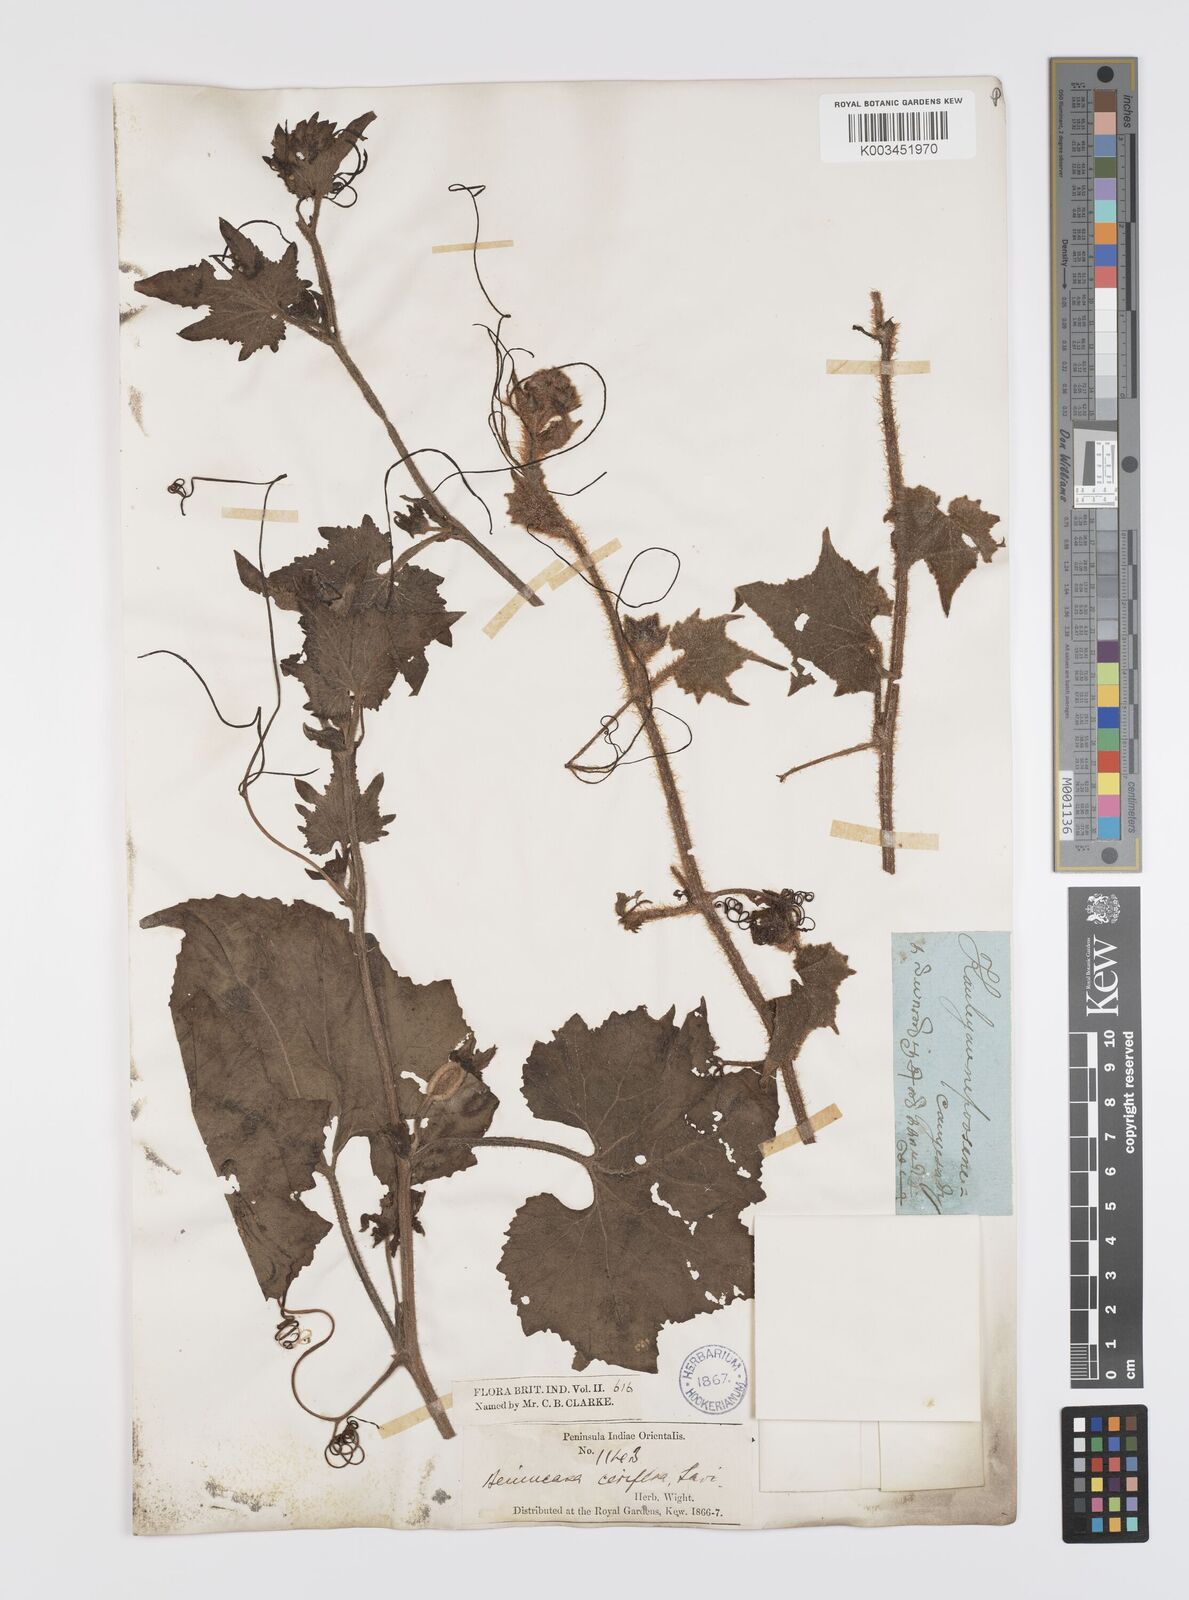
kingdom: Plantae
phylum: Tracheophyta
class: Magnoliopsida
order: Cucurbitales
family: Cucurbitaceae
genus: Benincasa
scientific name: Benincasa hispida
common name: Chinese-watermelon
